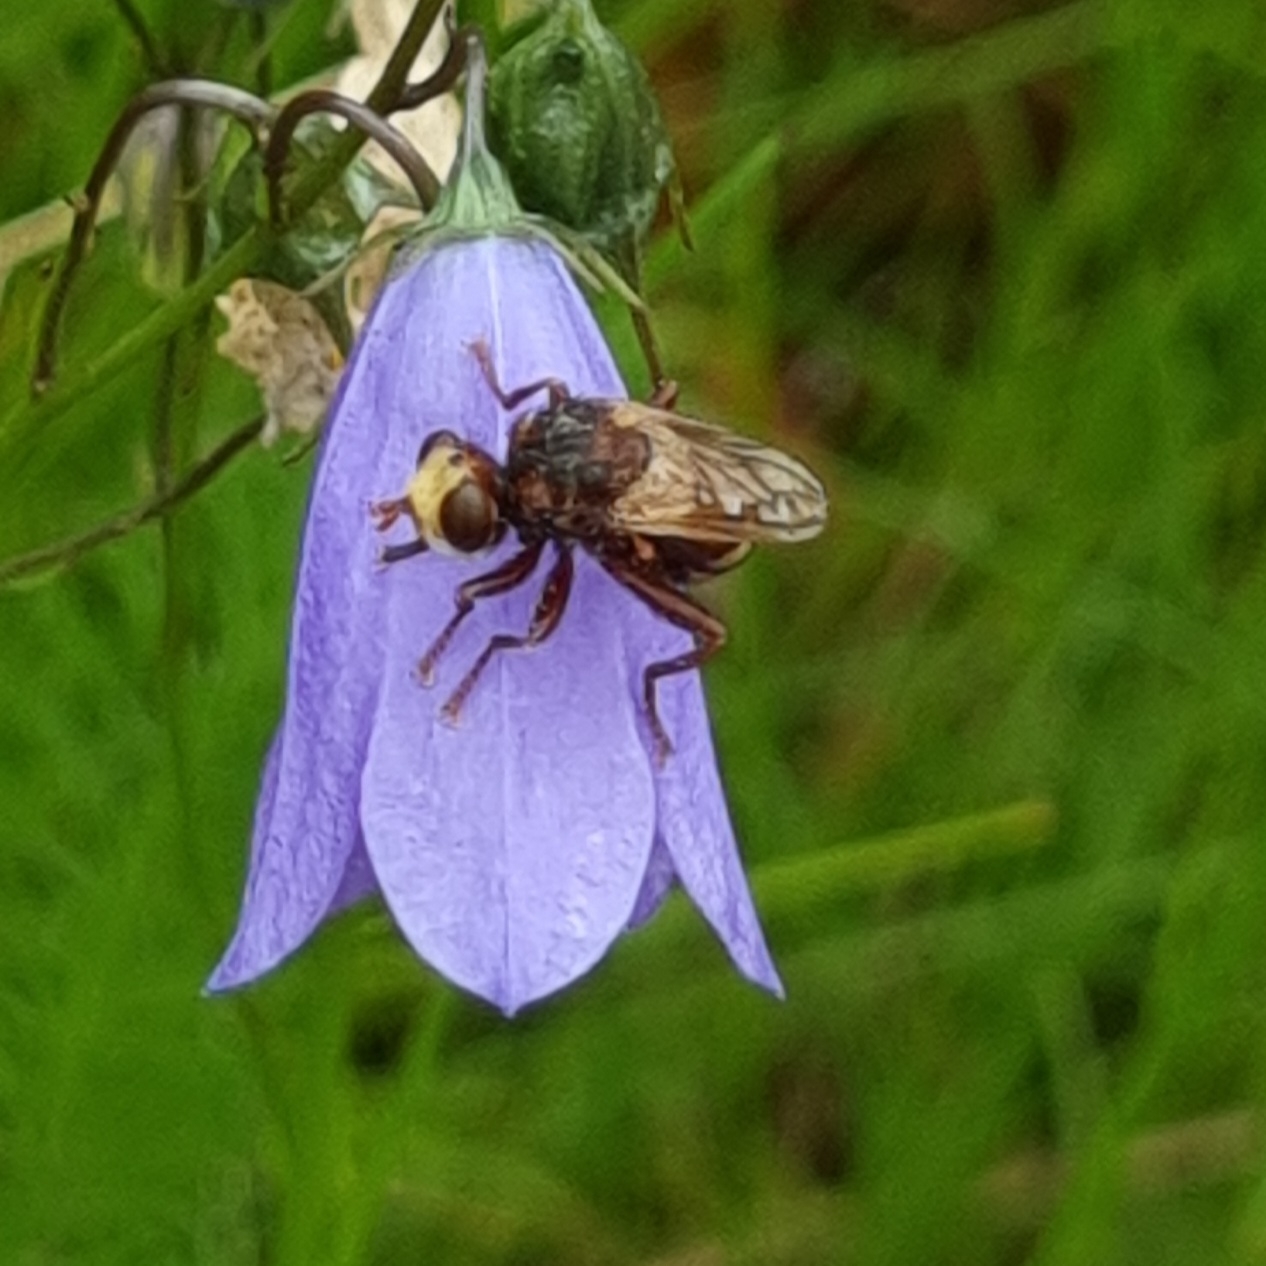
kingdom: Animalia
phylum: Arthropoda
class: Insecta
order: Diptera
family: Conopidae
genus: Sicus
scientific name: Sicus ferrugineus
